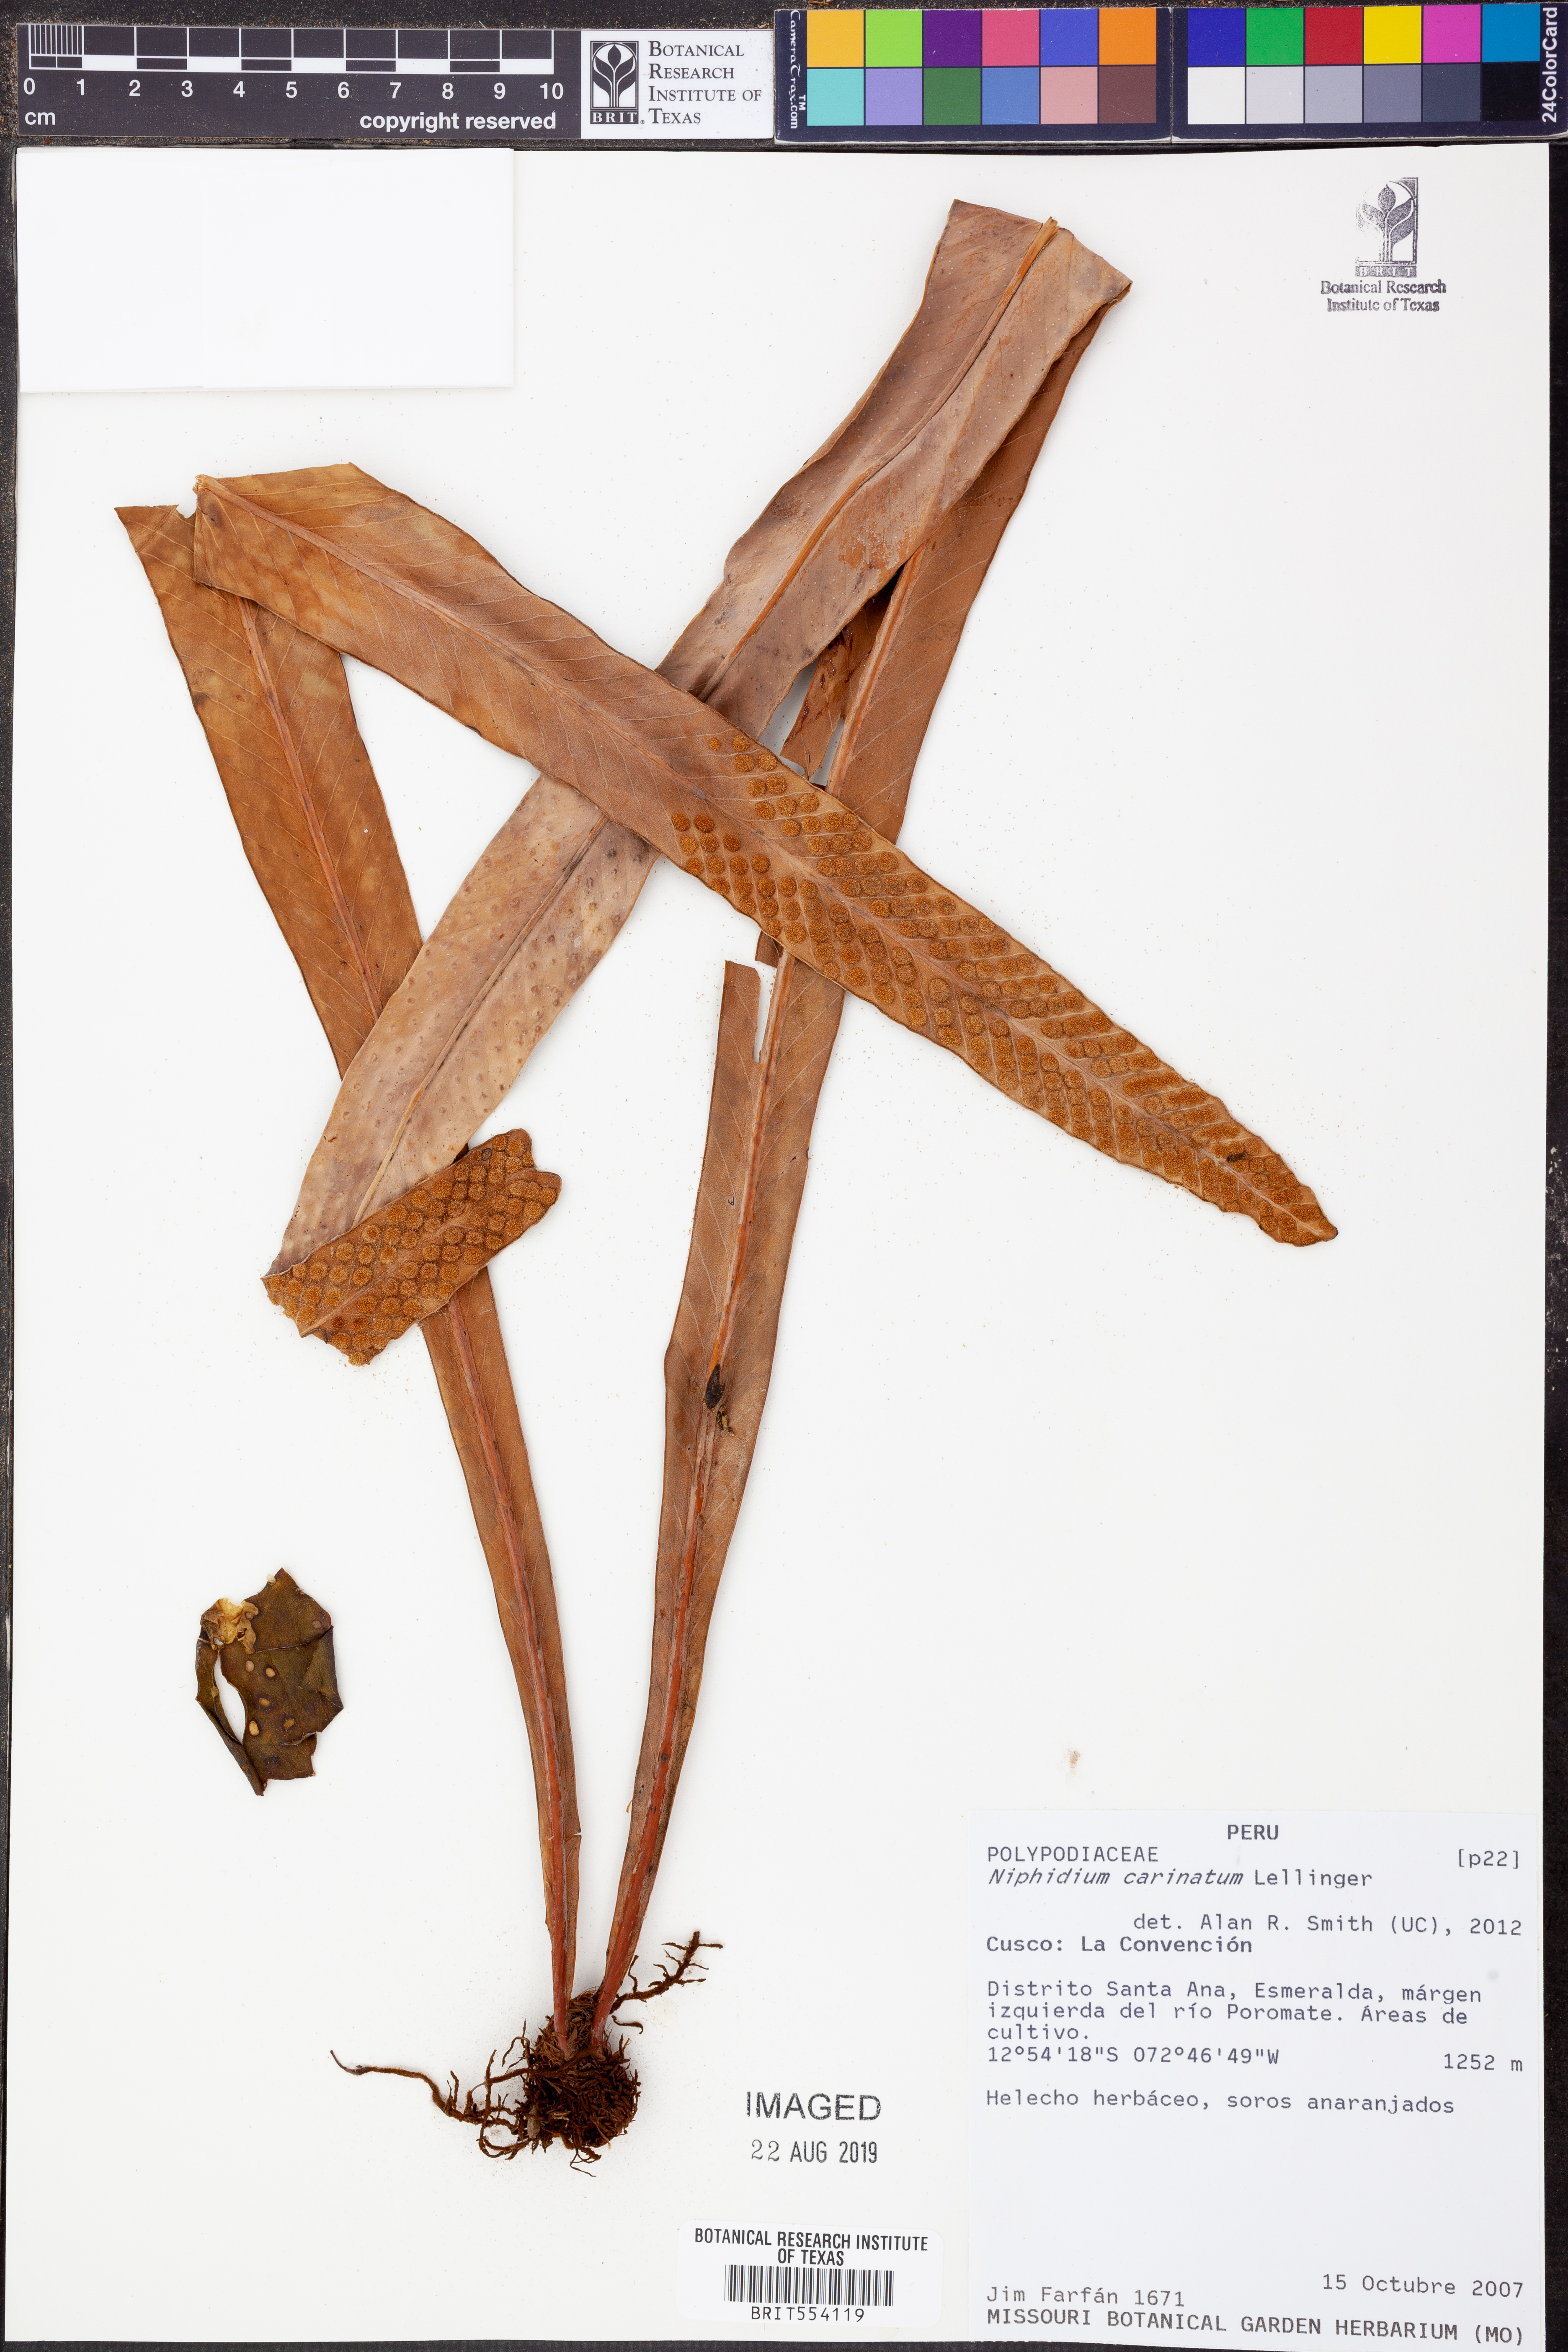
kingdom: Plantae
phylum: Tracheophyta
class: Polypodiopsida
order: Polypodiales
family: Polypodiaceae
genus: Niphidium
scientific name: Niphidium carinatum
